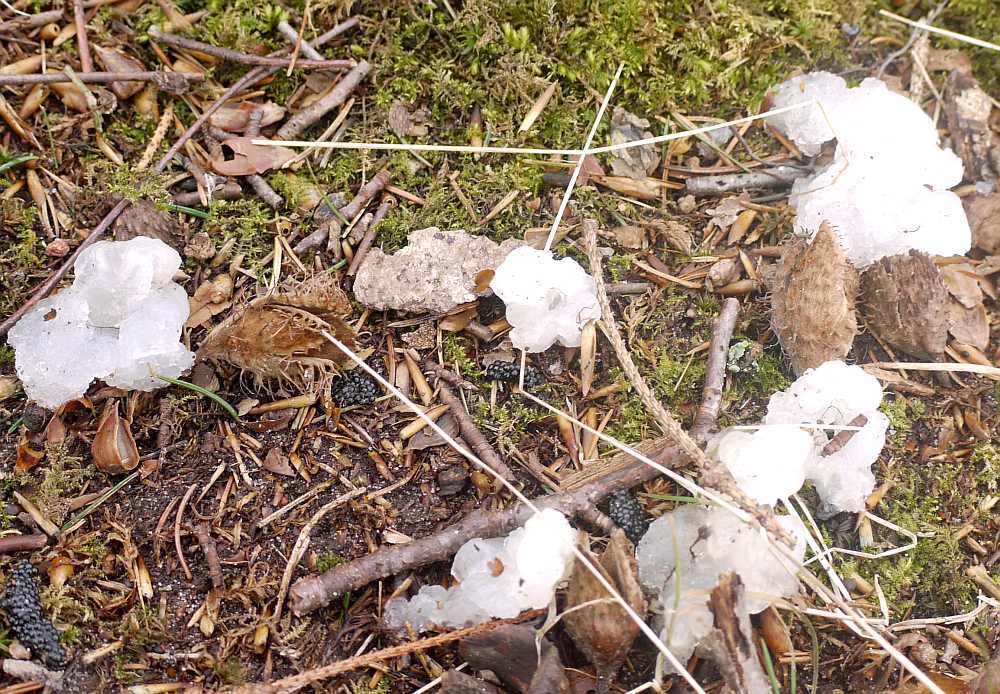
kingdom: Fungi
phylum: Basidiomycota
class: Agaricomycetes
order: Auriculariales
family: Hyaloriaceae
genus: Myxarium
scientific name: Myxarium nucleatum
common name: klar bævretop
